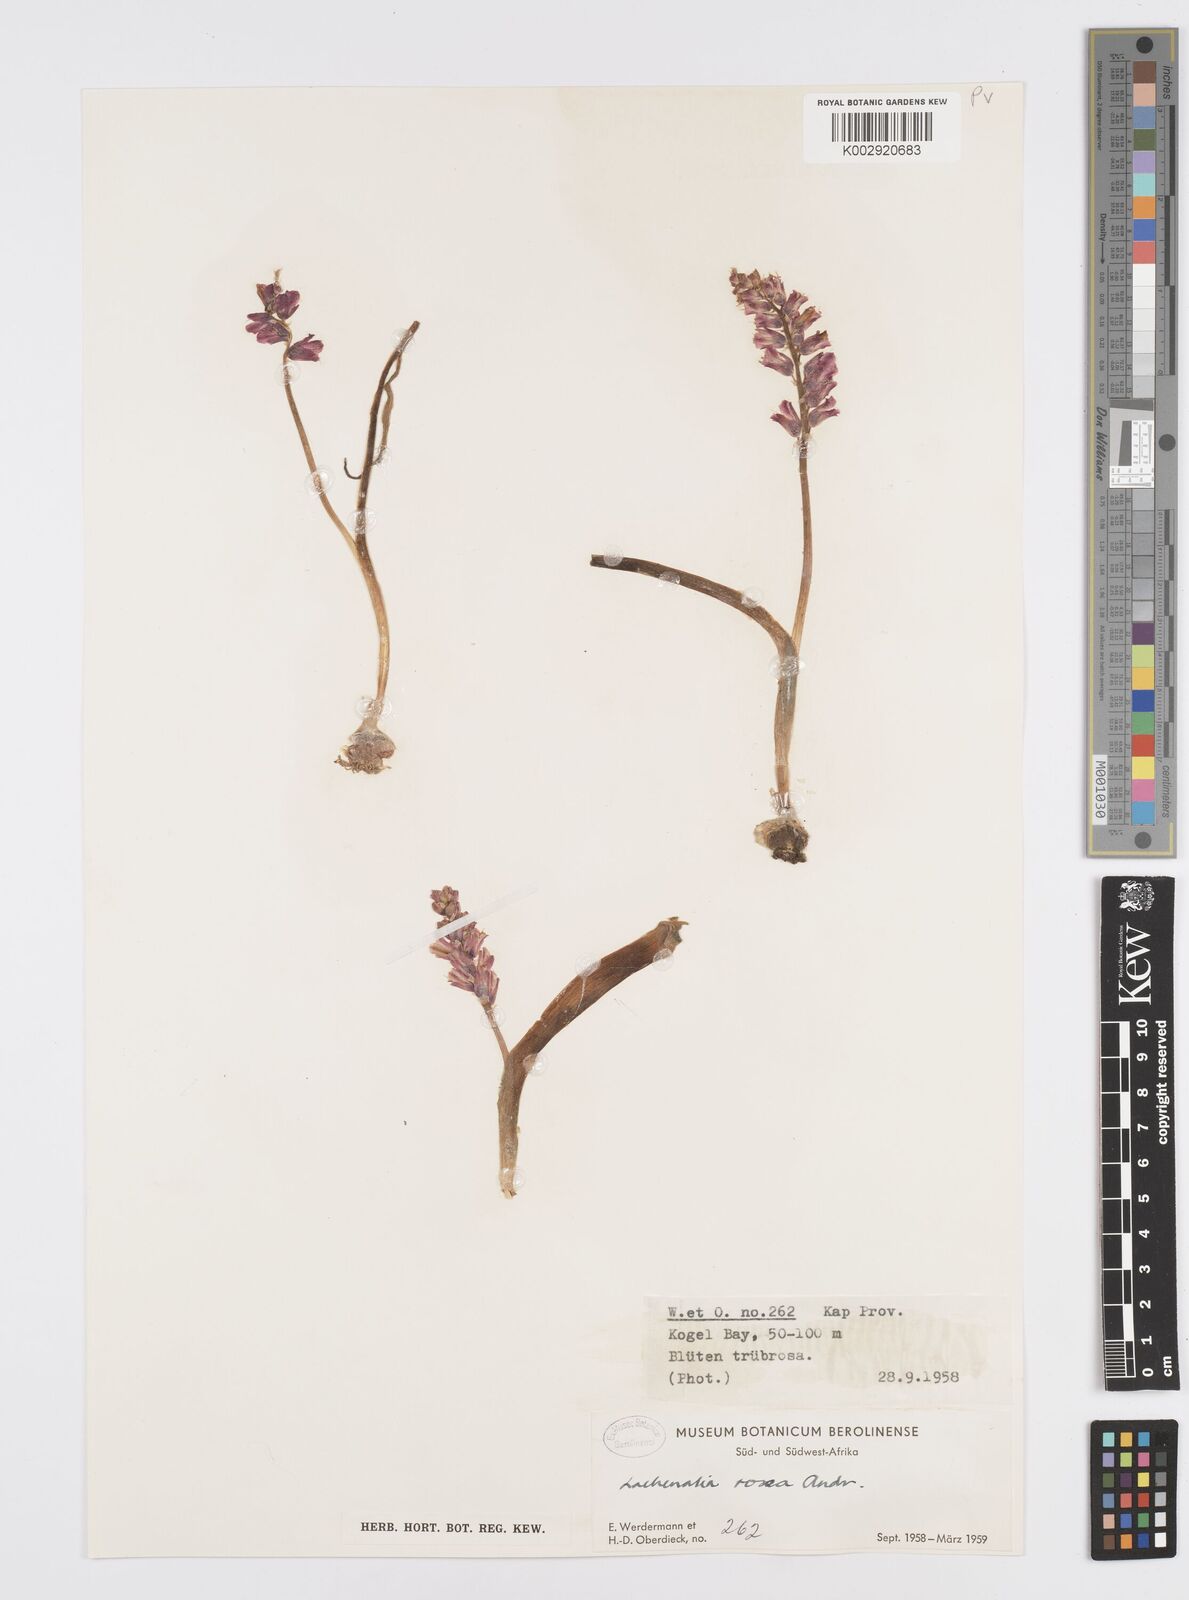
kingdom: Plantae
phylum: Tracheophyta
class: Liliopsida
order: Asparagales
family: Asparagaceae
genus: Lachenalia
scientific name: Lachenalia rosea
